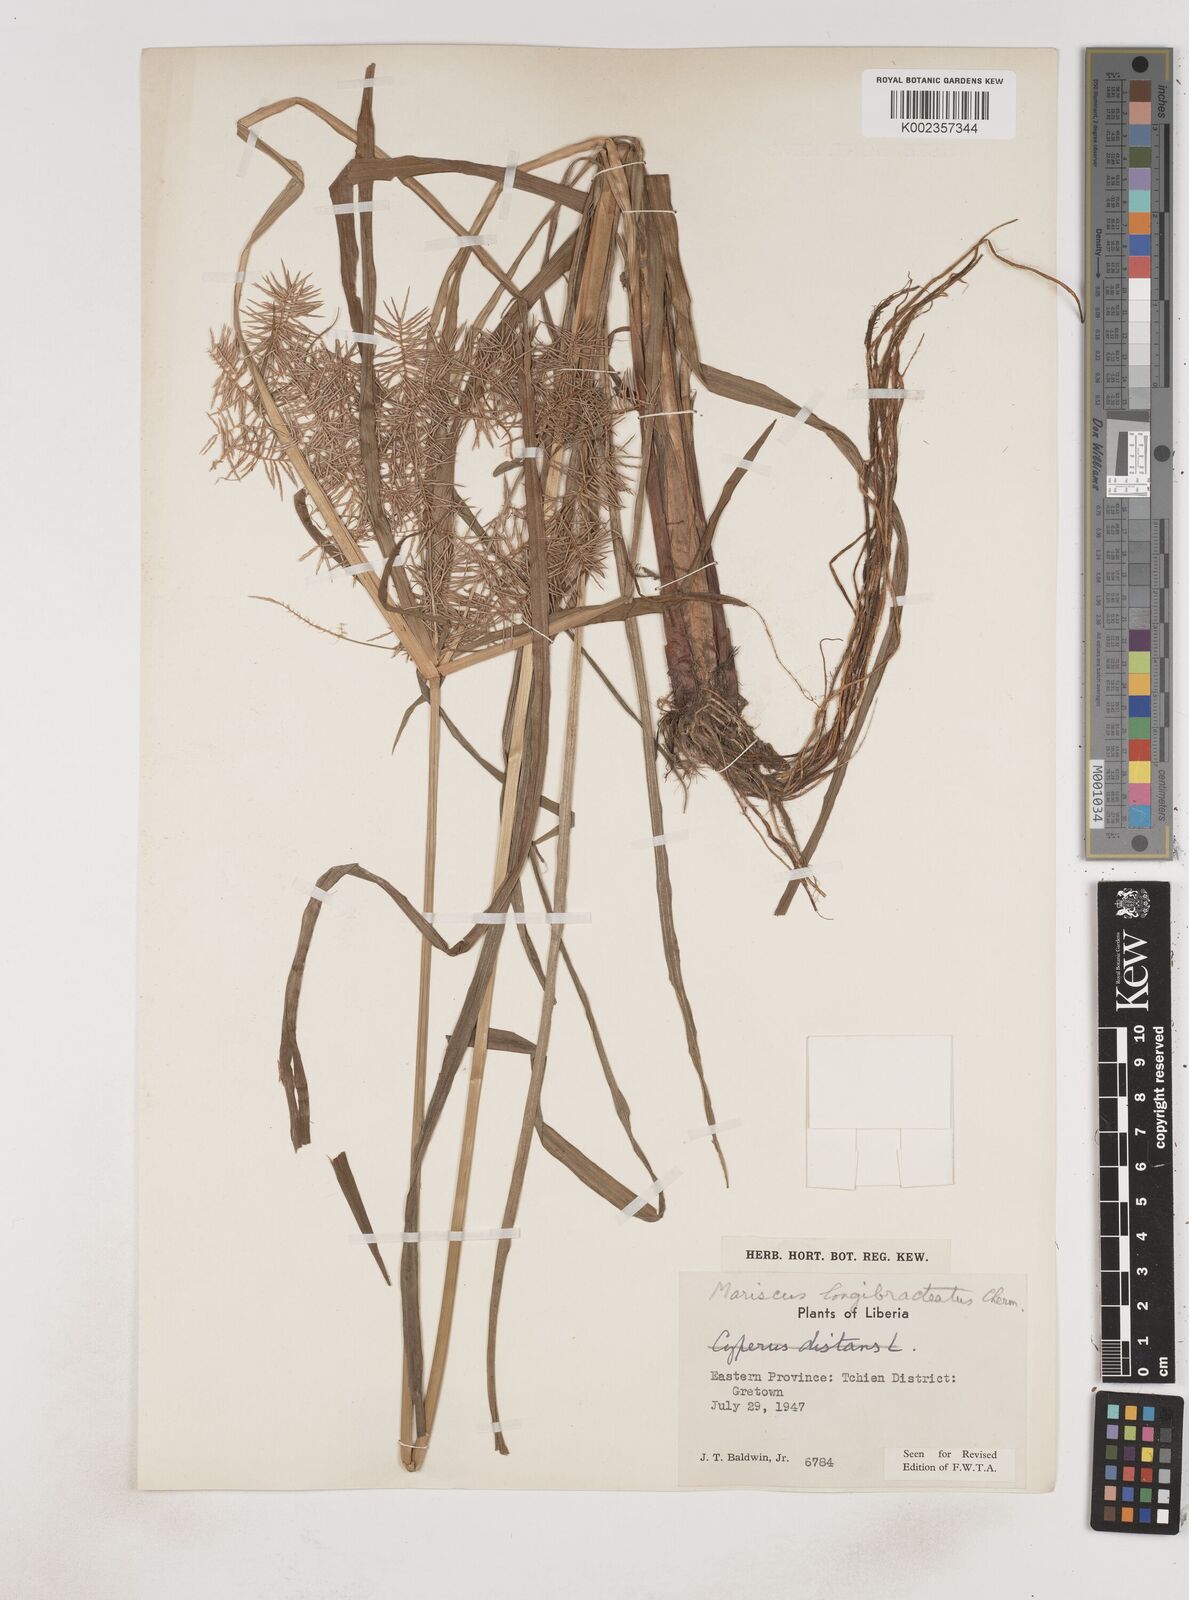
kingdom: Plantae
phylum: Tracheophyta
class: Liliopsida
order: Poales
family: Cyperaceae
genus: Cyperus
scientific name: Cyperus distans
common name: Slender cyperus
